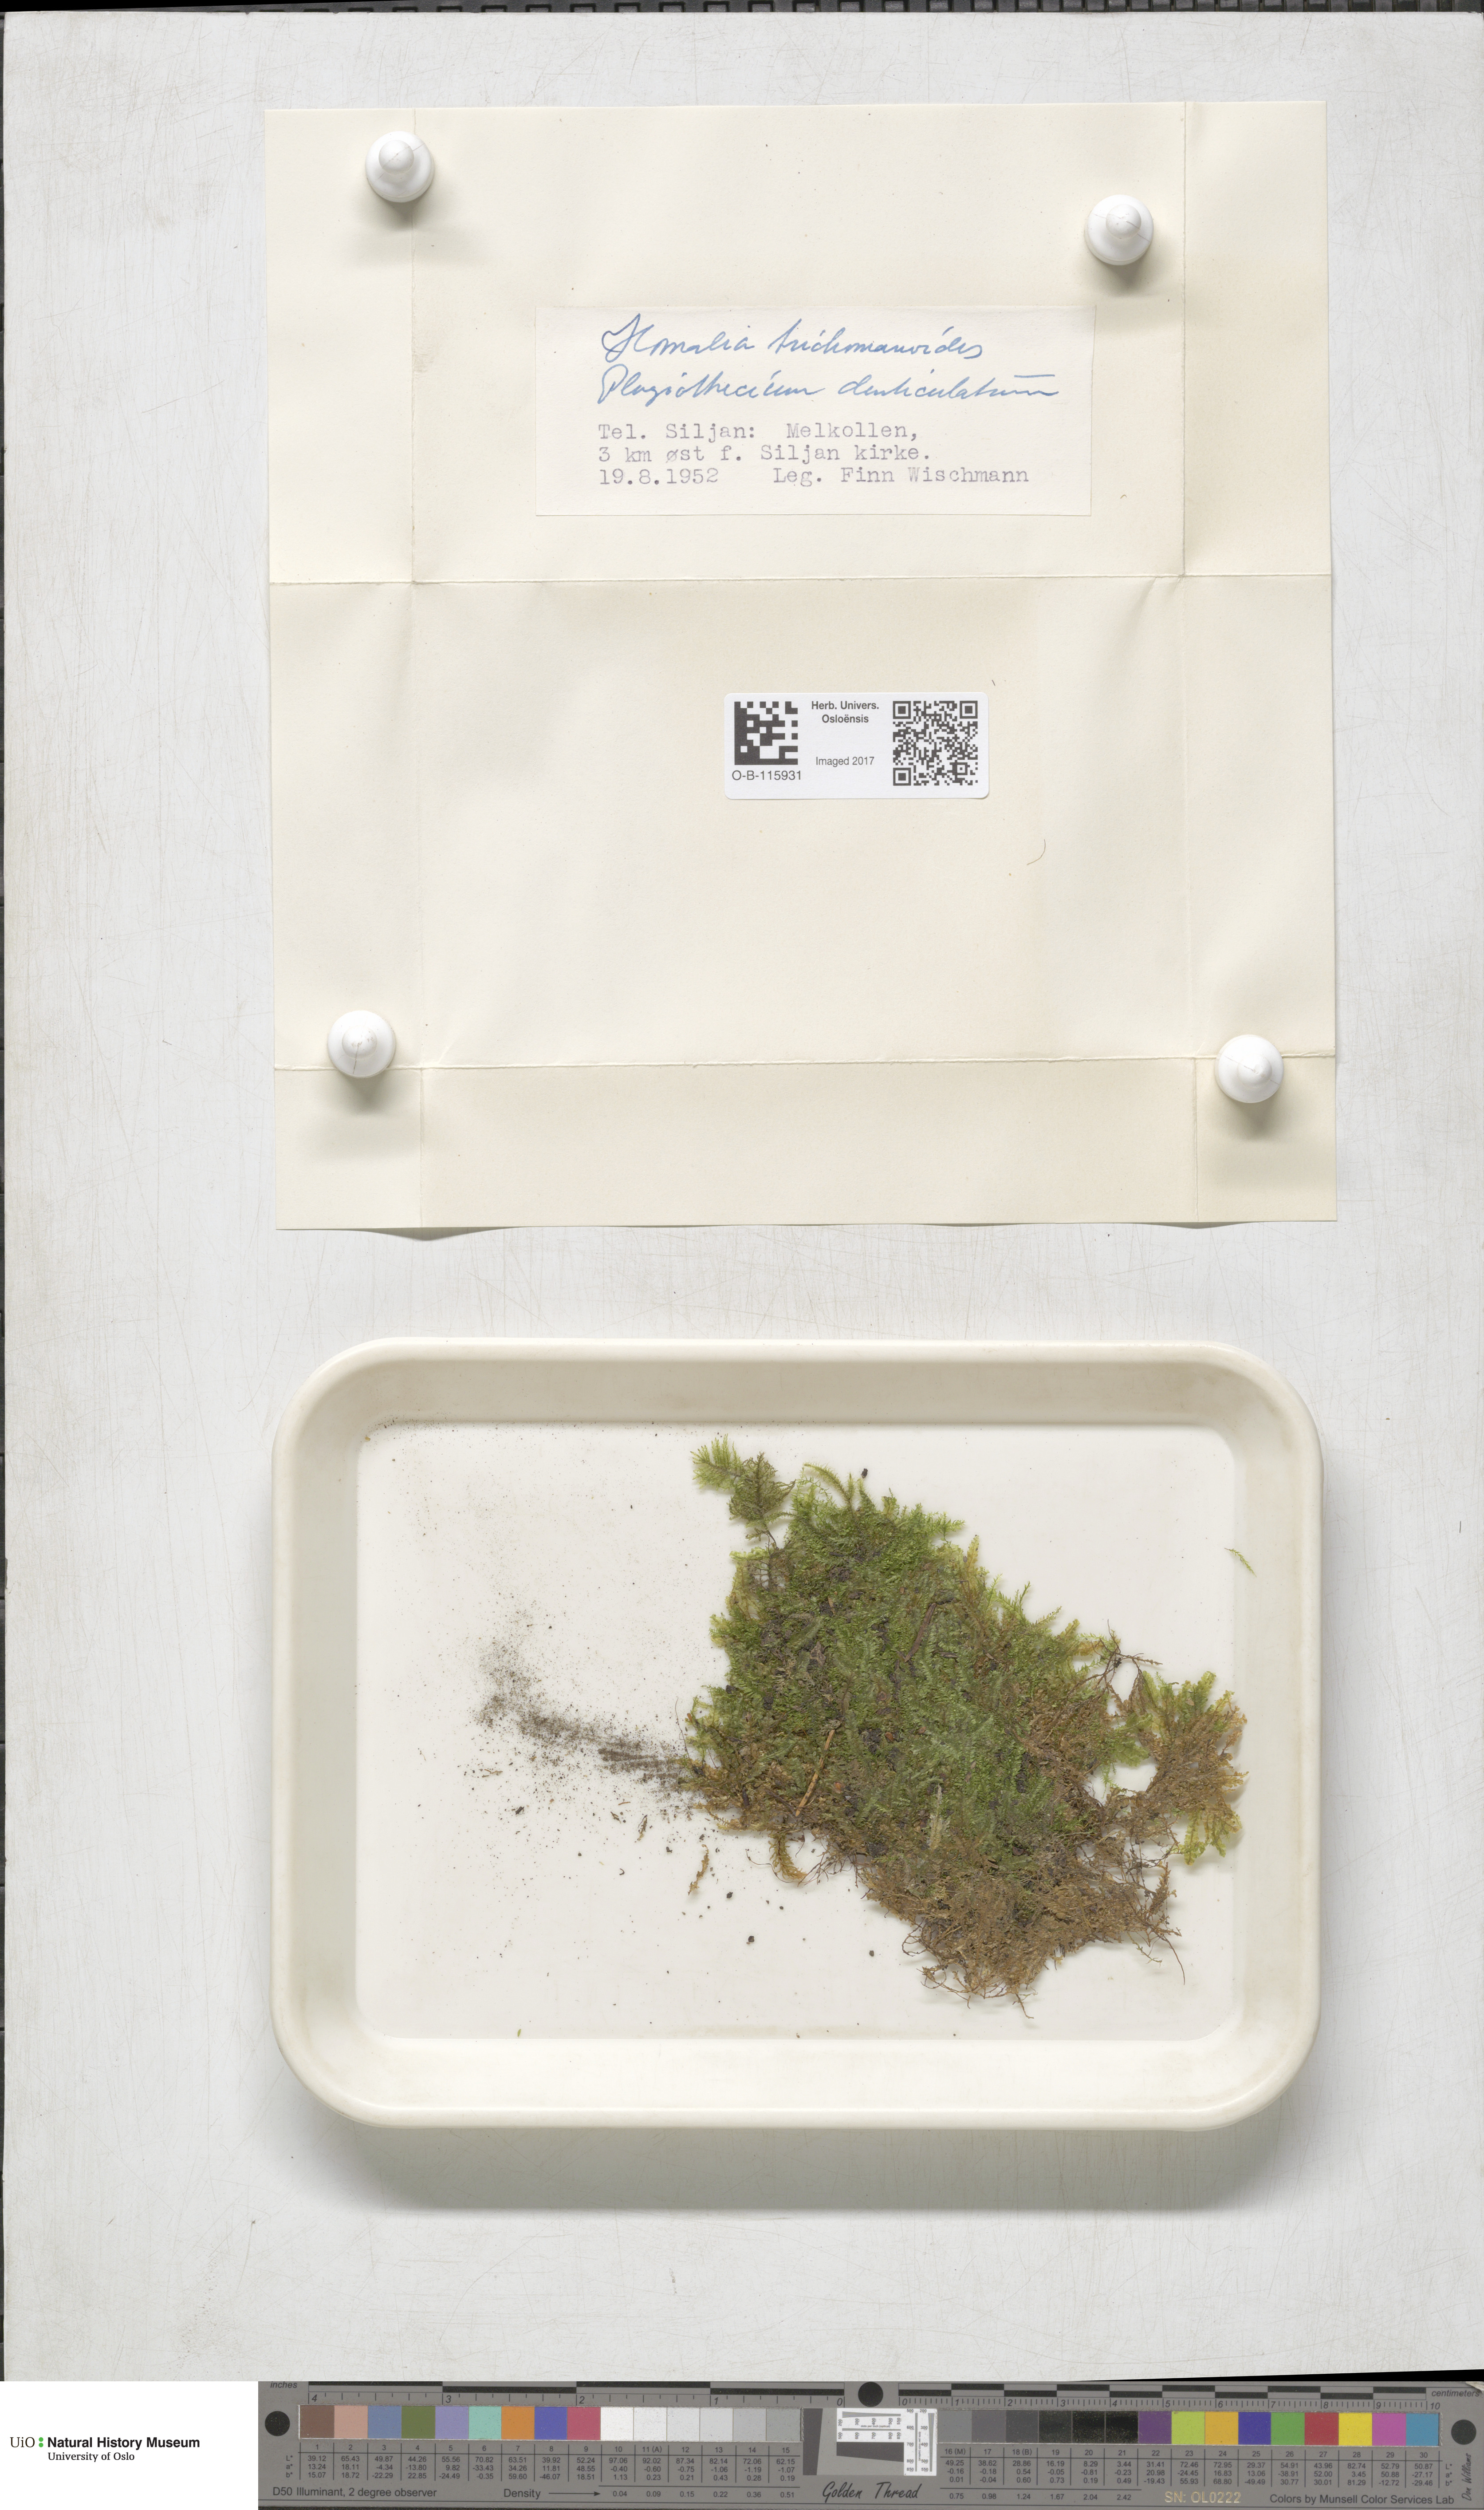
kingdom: Plantae
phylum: Bryophyta
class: Bryopsida
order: Hypnales
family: Neckeraceae
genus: Homalia
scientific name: Homalia trichomanoides
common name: Lime homalia moss
